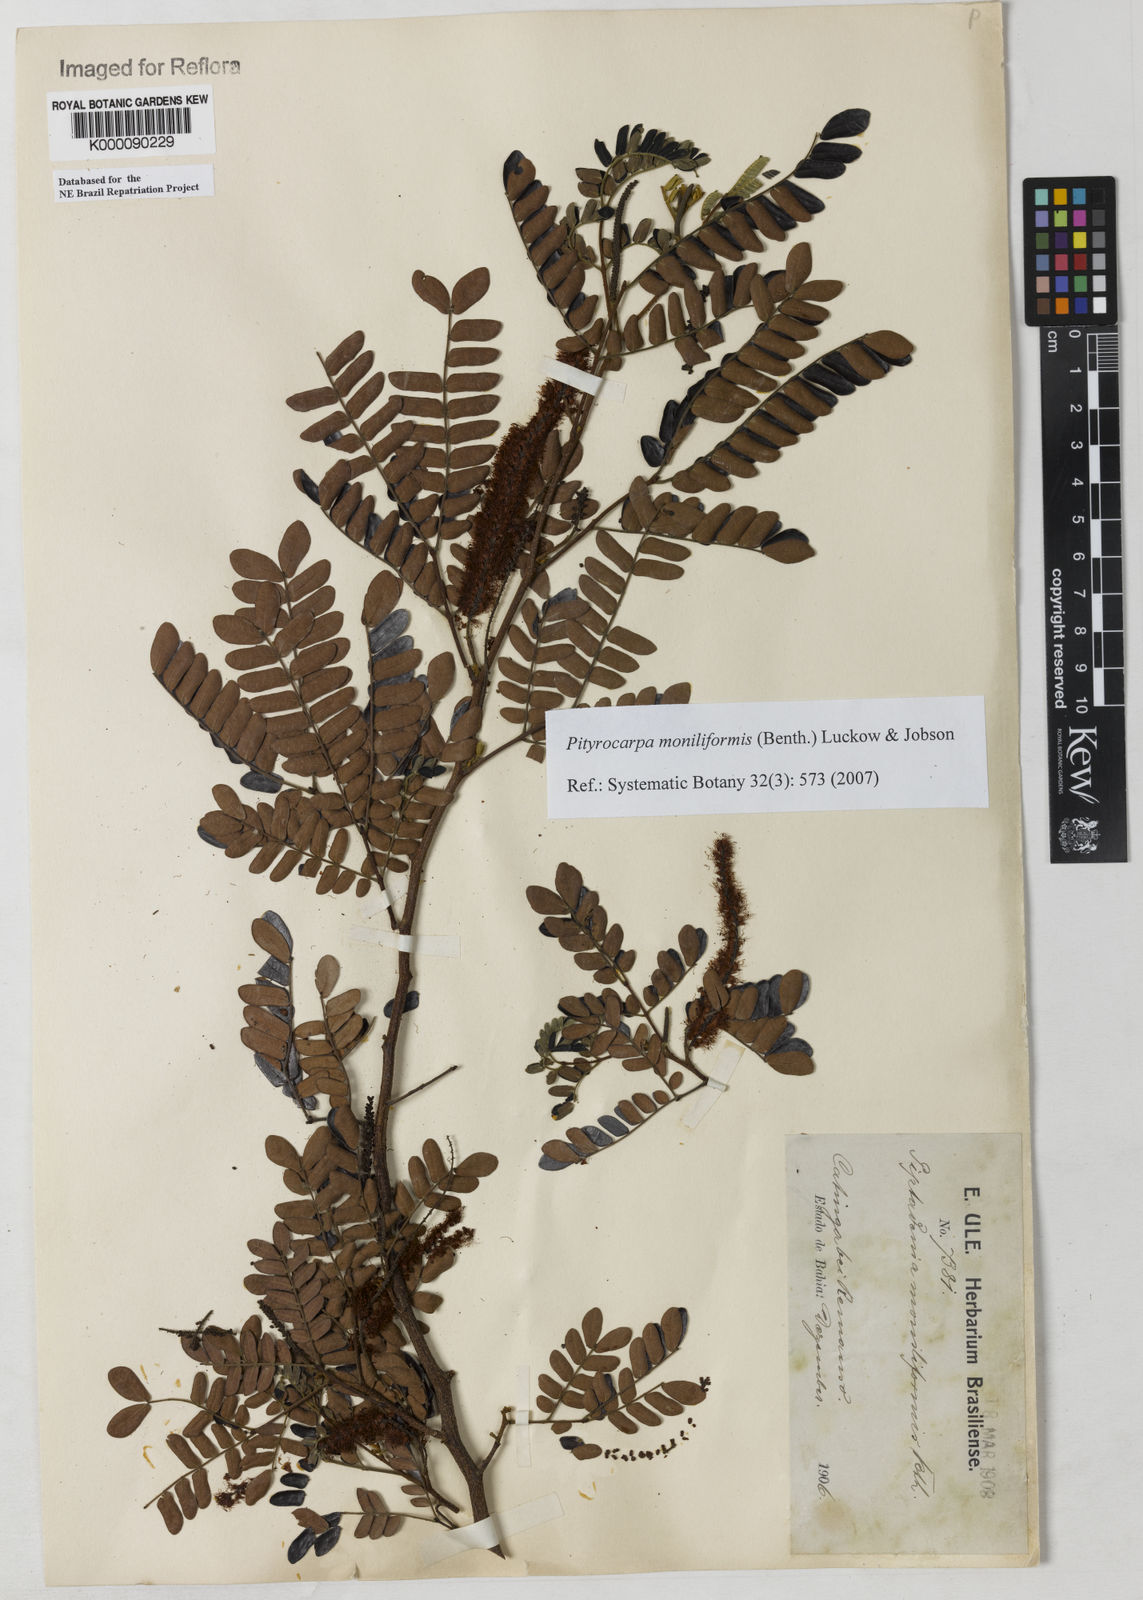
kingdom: Plantae
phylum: Tracheophyta
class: Magnoliopsida
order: Fabales
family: Fabaceae
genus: Pityrocarpa
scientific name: Pityrocarpa moniliformis
